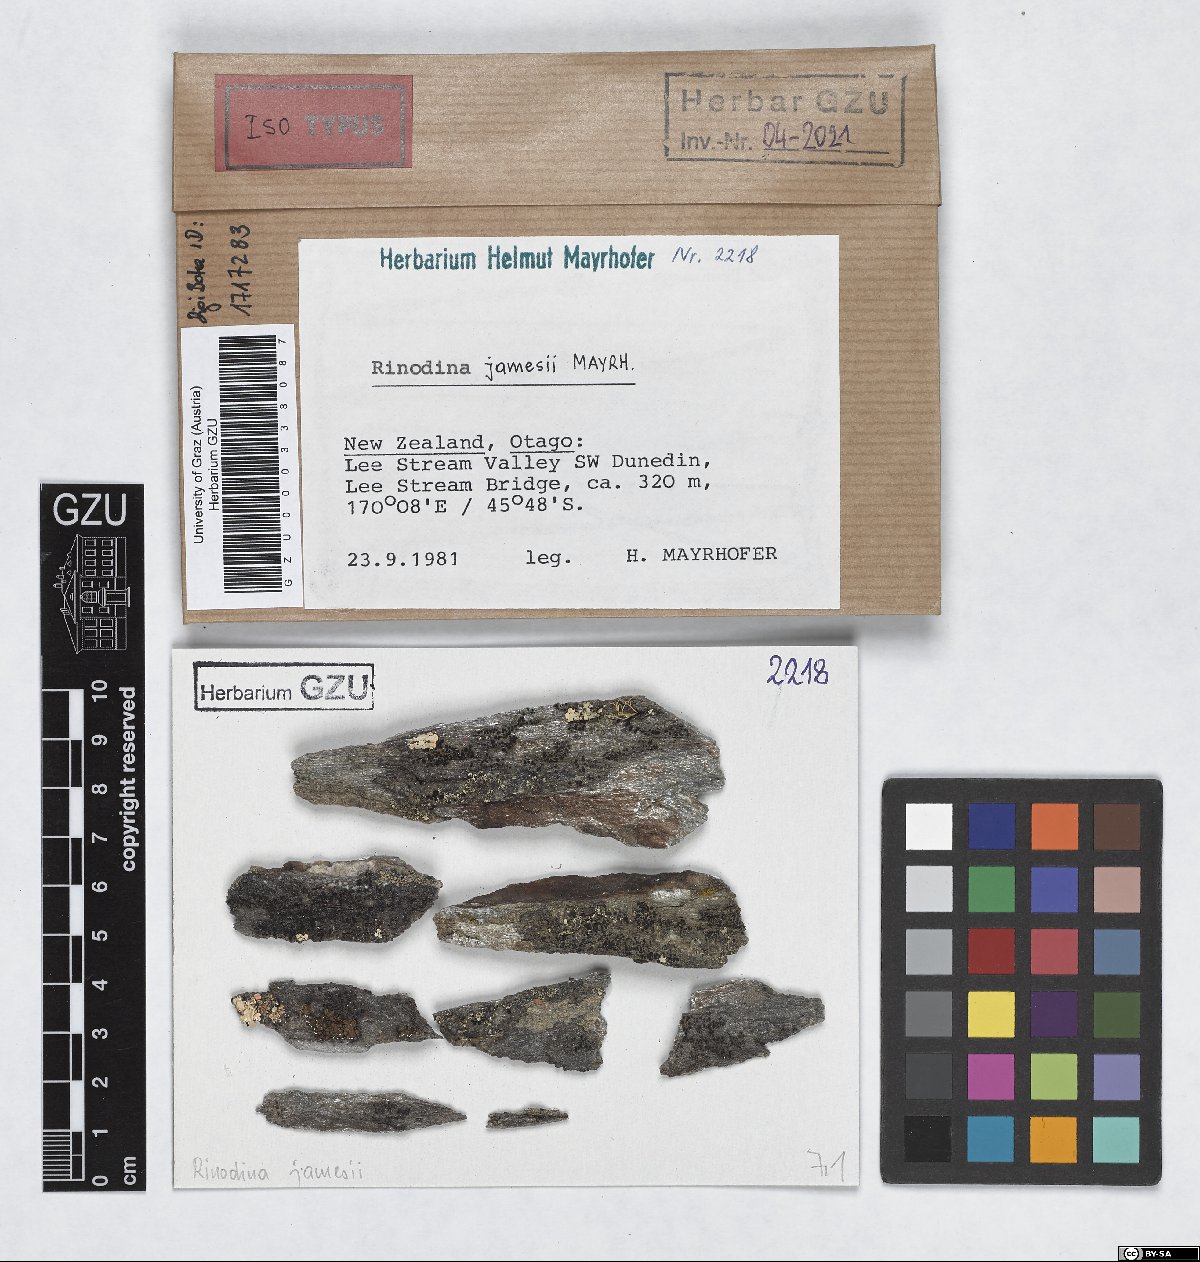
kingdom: Fungi
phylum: Ascomycota
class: Lecanoromycetes
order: Caliciales
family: Physciaceae
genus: Johnsheardia
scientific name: Johnsheardia jamesii
